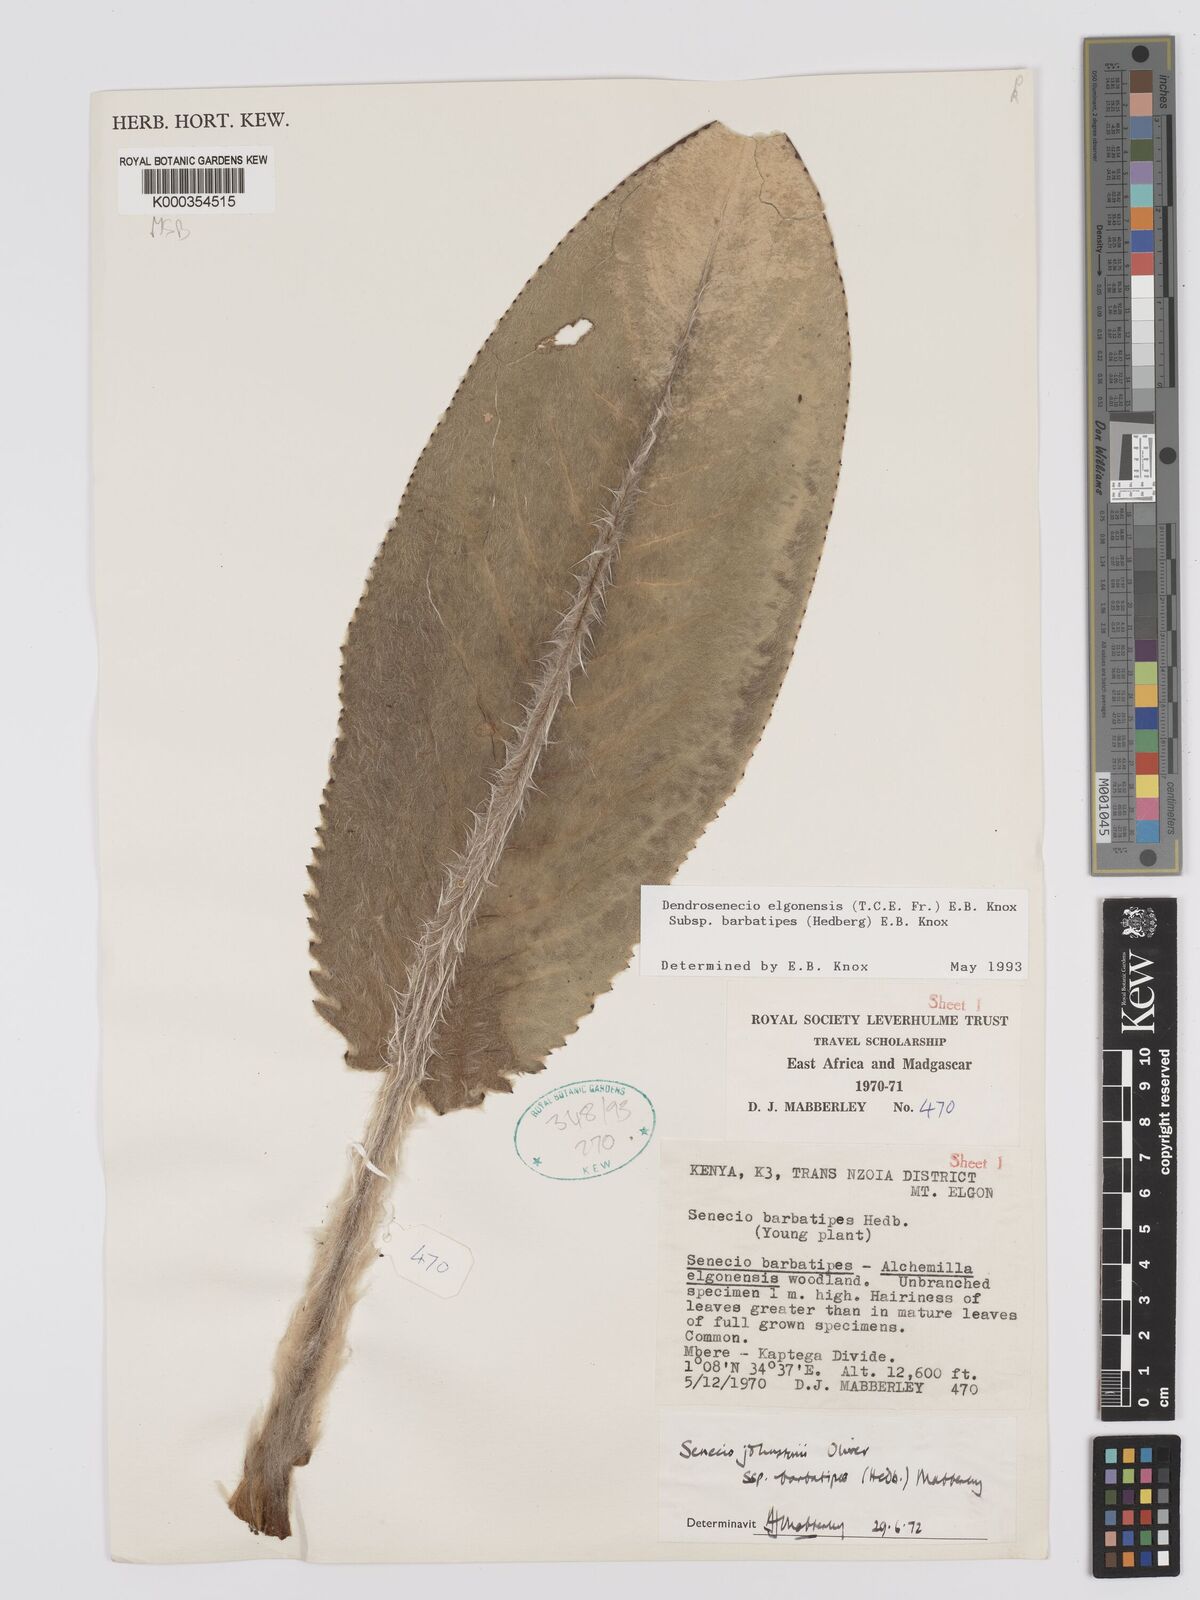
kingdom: Plantae
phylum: Tracheophyta
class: Magnoliopsida
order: Asterales
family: Asteraceae
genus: Dendrosenecio
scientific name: Dendrosenecio elgonensis
